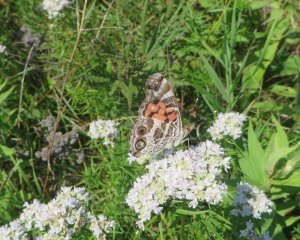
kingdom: Animalia
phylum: Arthropoda
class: Insecta
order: Lepidoptera
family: Nymphalidae
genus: Vanessa
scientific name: Vanessa virginiensis
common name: American Lady
